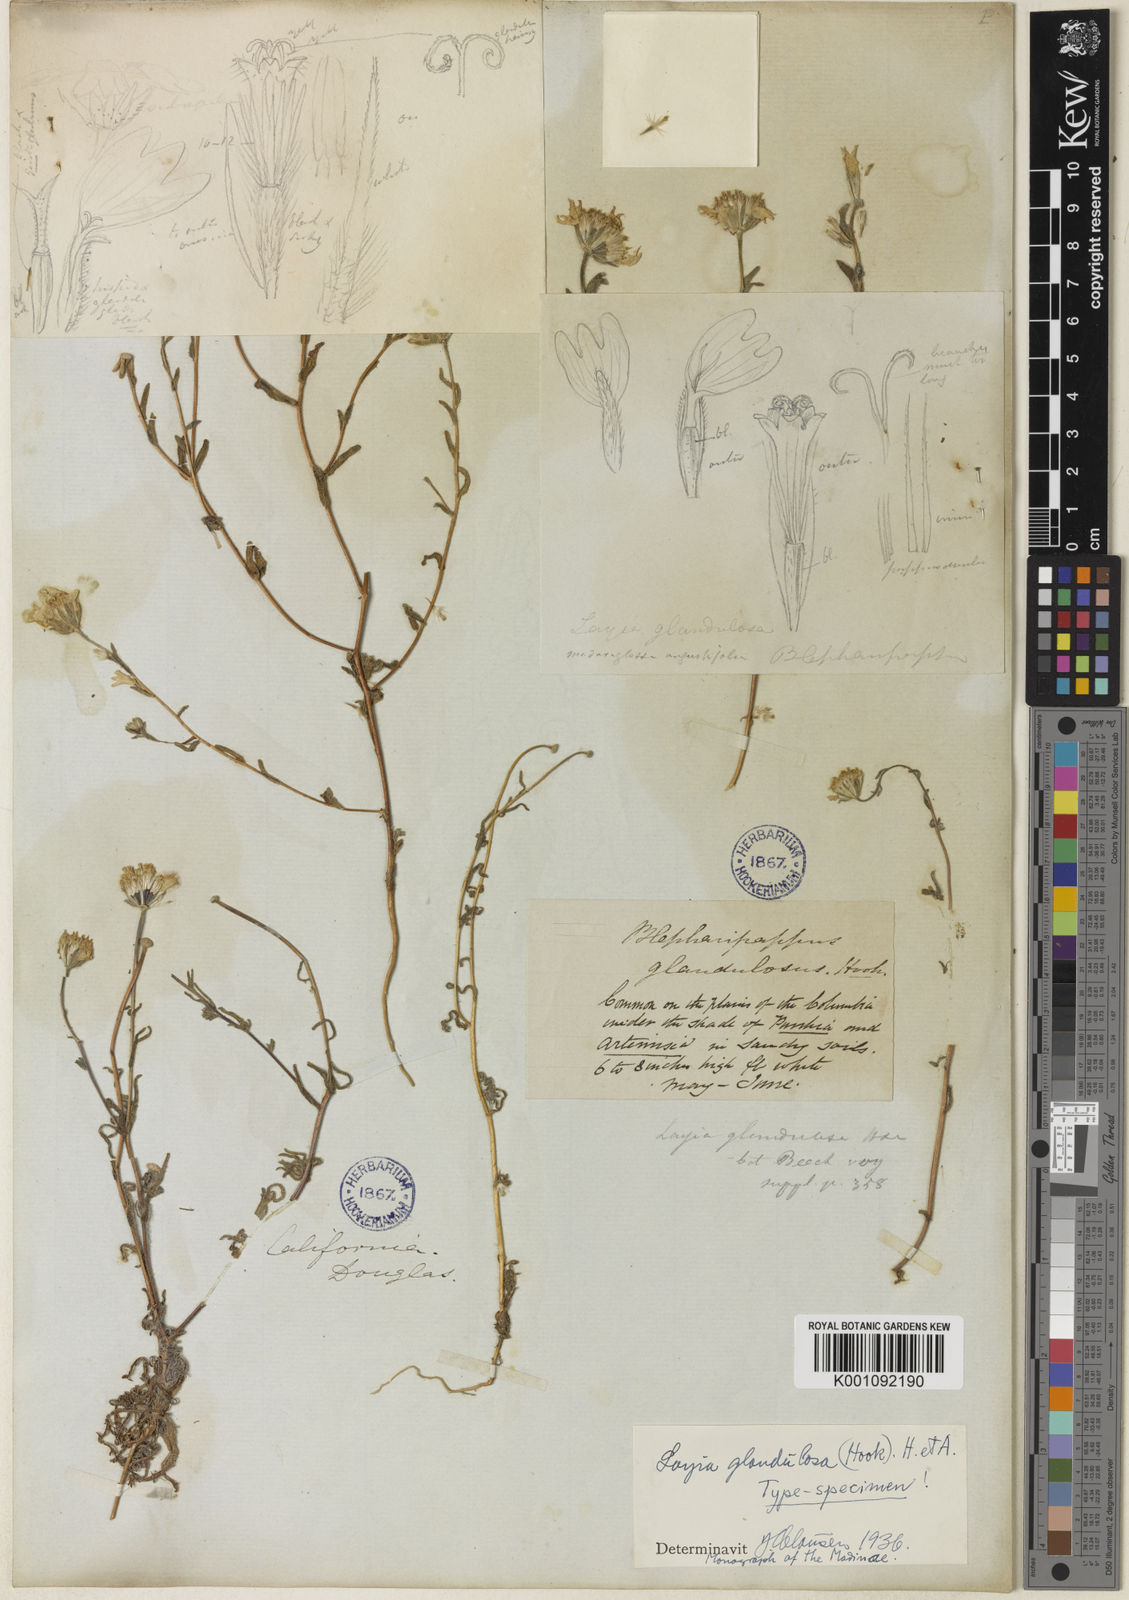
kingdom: Plantae
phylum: Tracheophyta
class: Magnoliopsida
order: Asterales
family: Asteraceae
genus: Layia
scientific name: Layia glandulosa
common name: White layia
